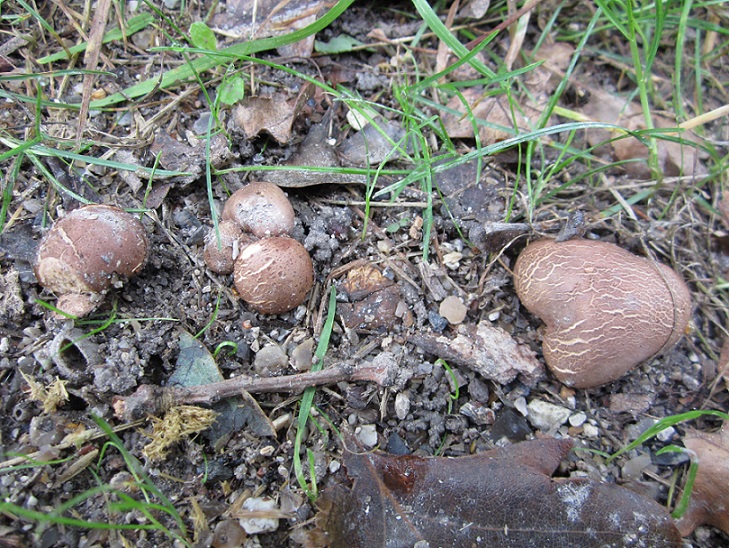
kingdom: Fungi
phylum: Basidiomycota
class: Agaricomycetes
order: Boletales
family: Sclerodermataceae
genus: Scleroderma
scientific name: Scleroderma bovista
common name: bovist-bruskbold
